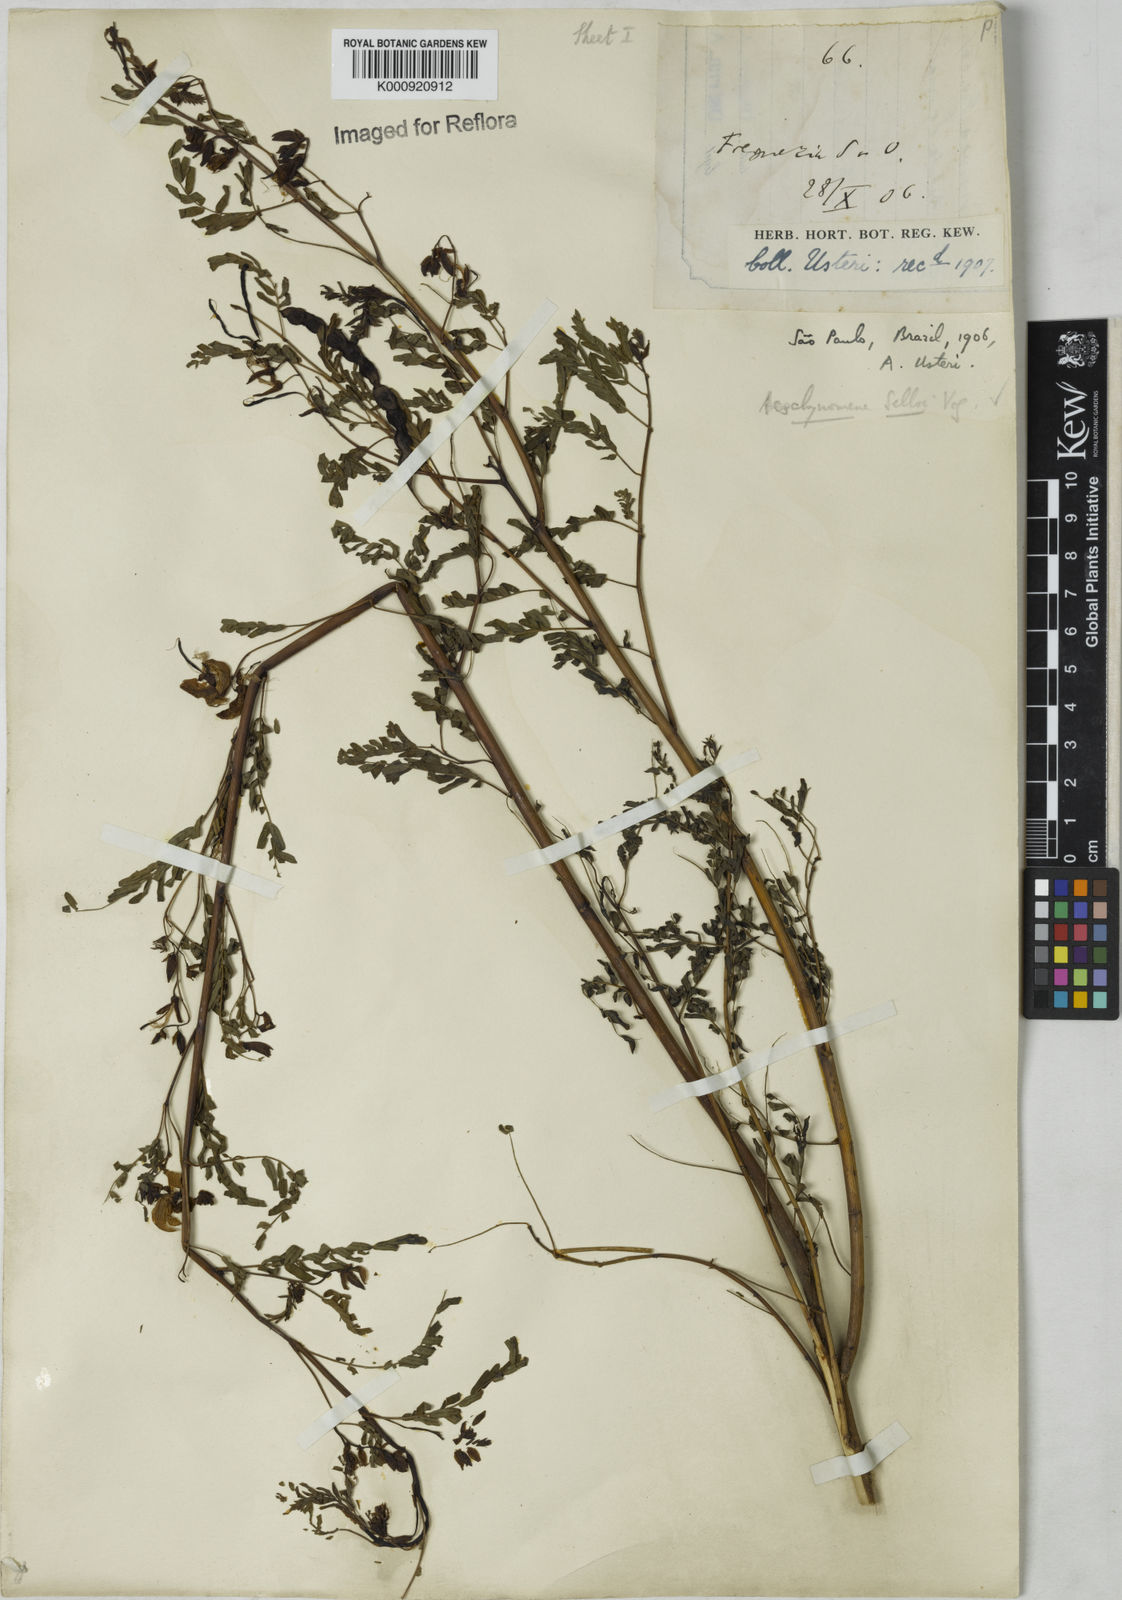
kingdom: Plantae
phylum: Tracheophyta
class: Magnoliopsida
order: Fabales
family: Fabaceae
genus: Centrosema
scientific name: Centrosema
